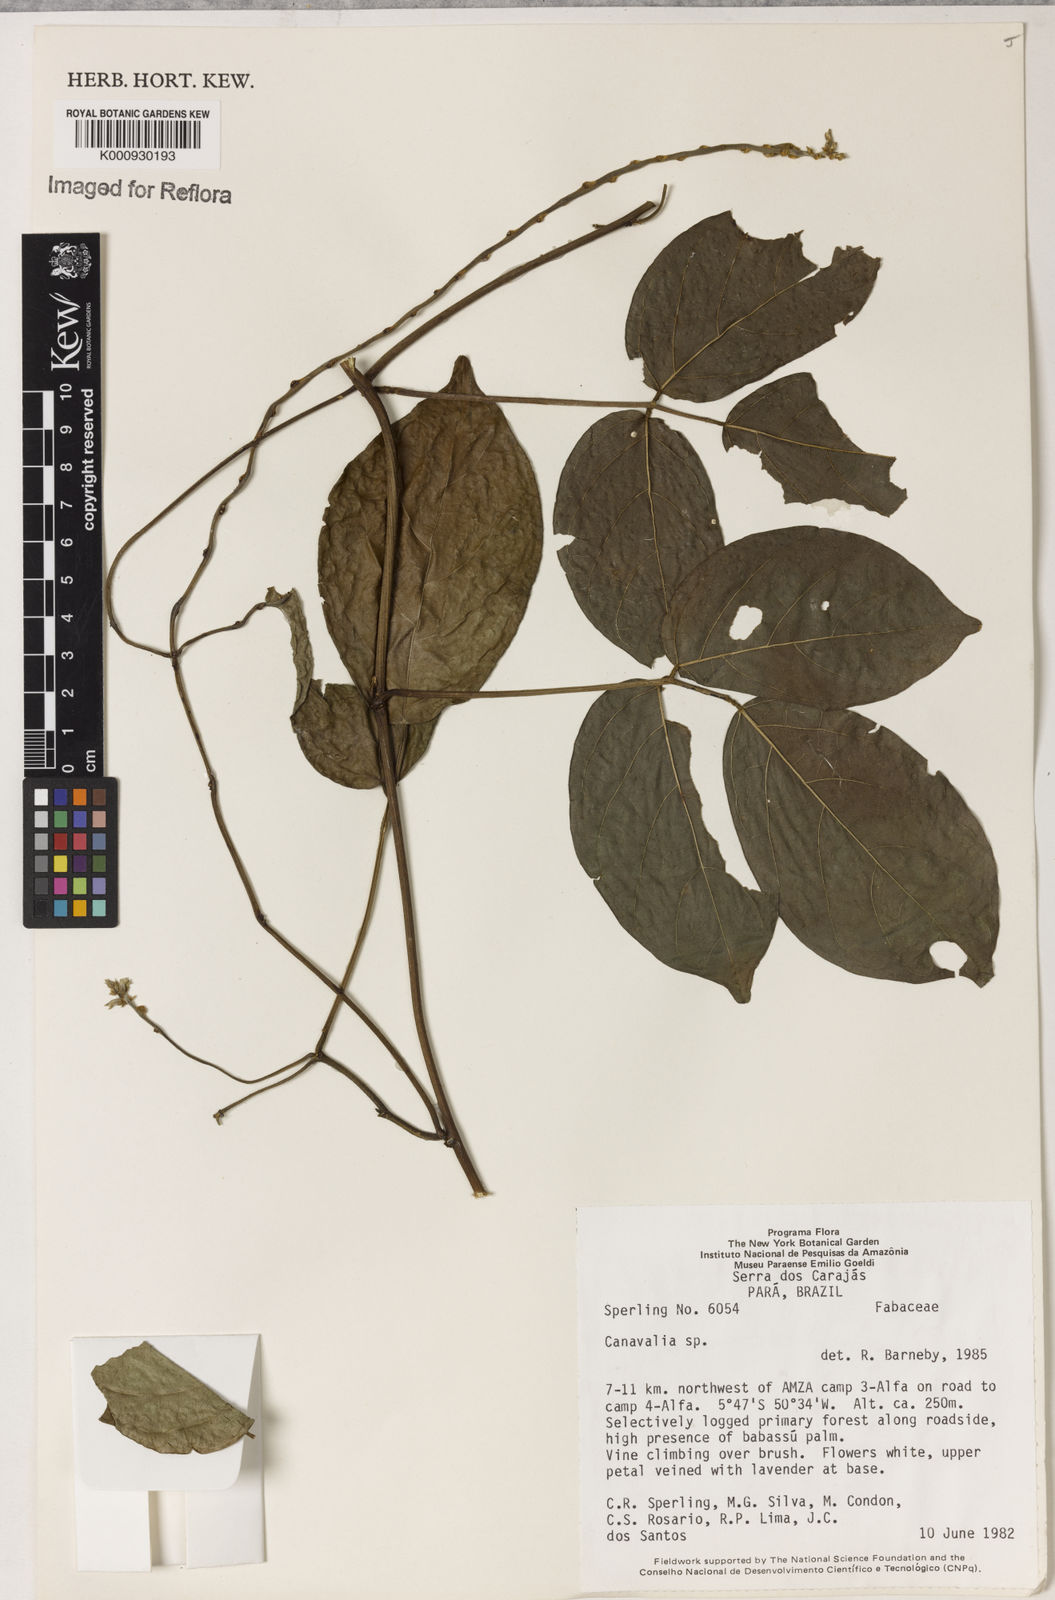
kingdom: Plantae
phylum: Tracheophyta
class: Magnoliopsida
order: Fabales
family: Fabaceae
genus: Canavalia
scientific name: Canavalia
